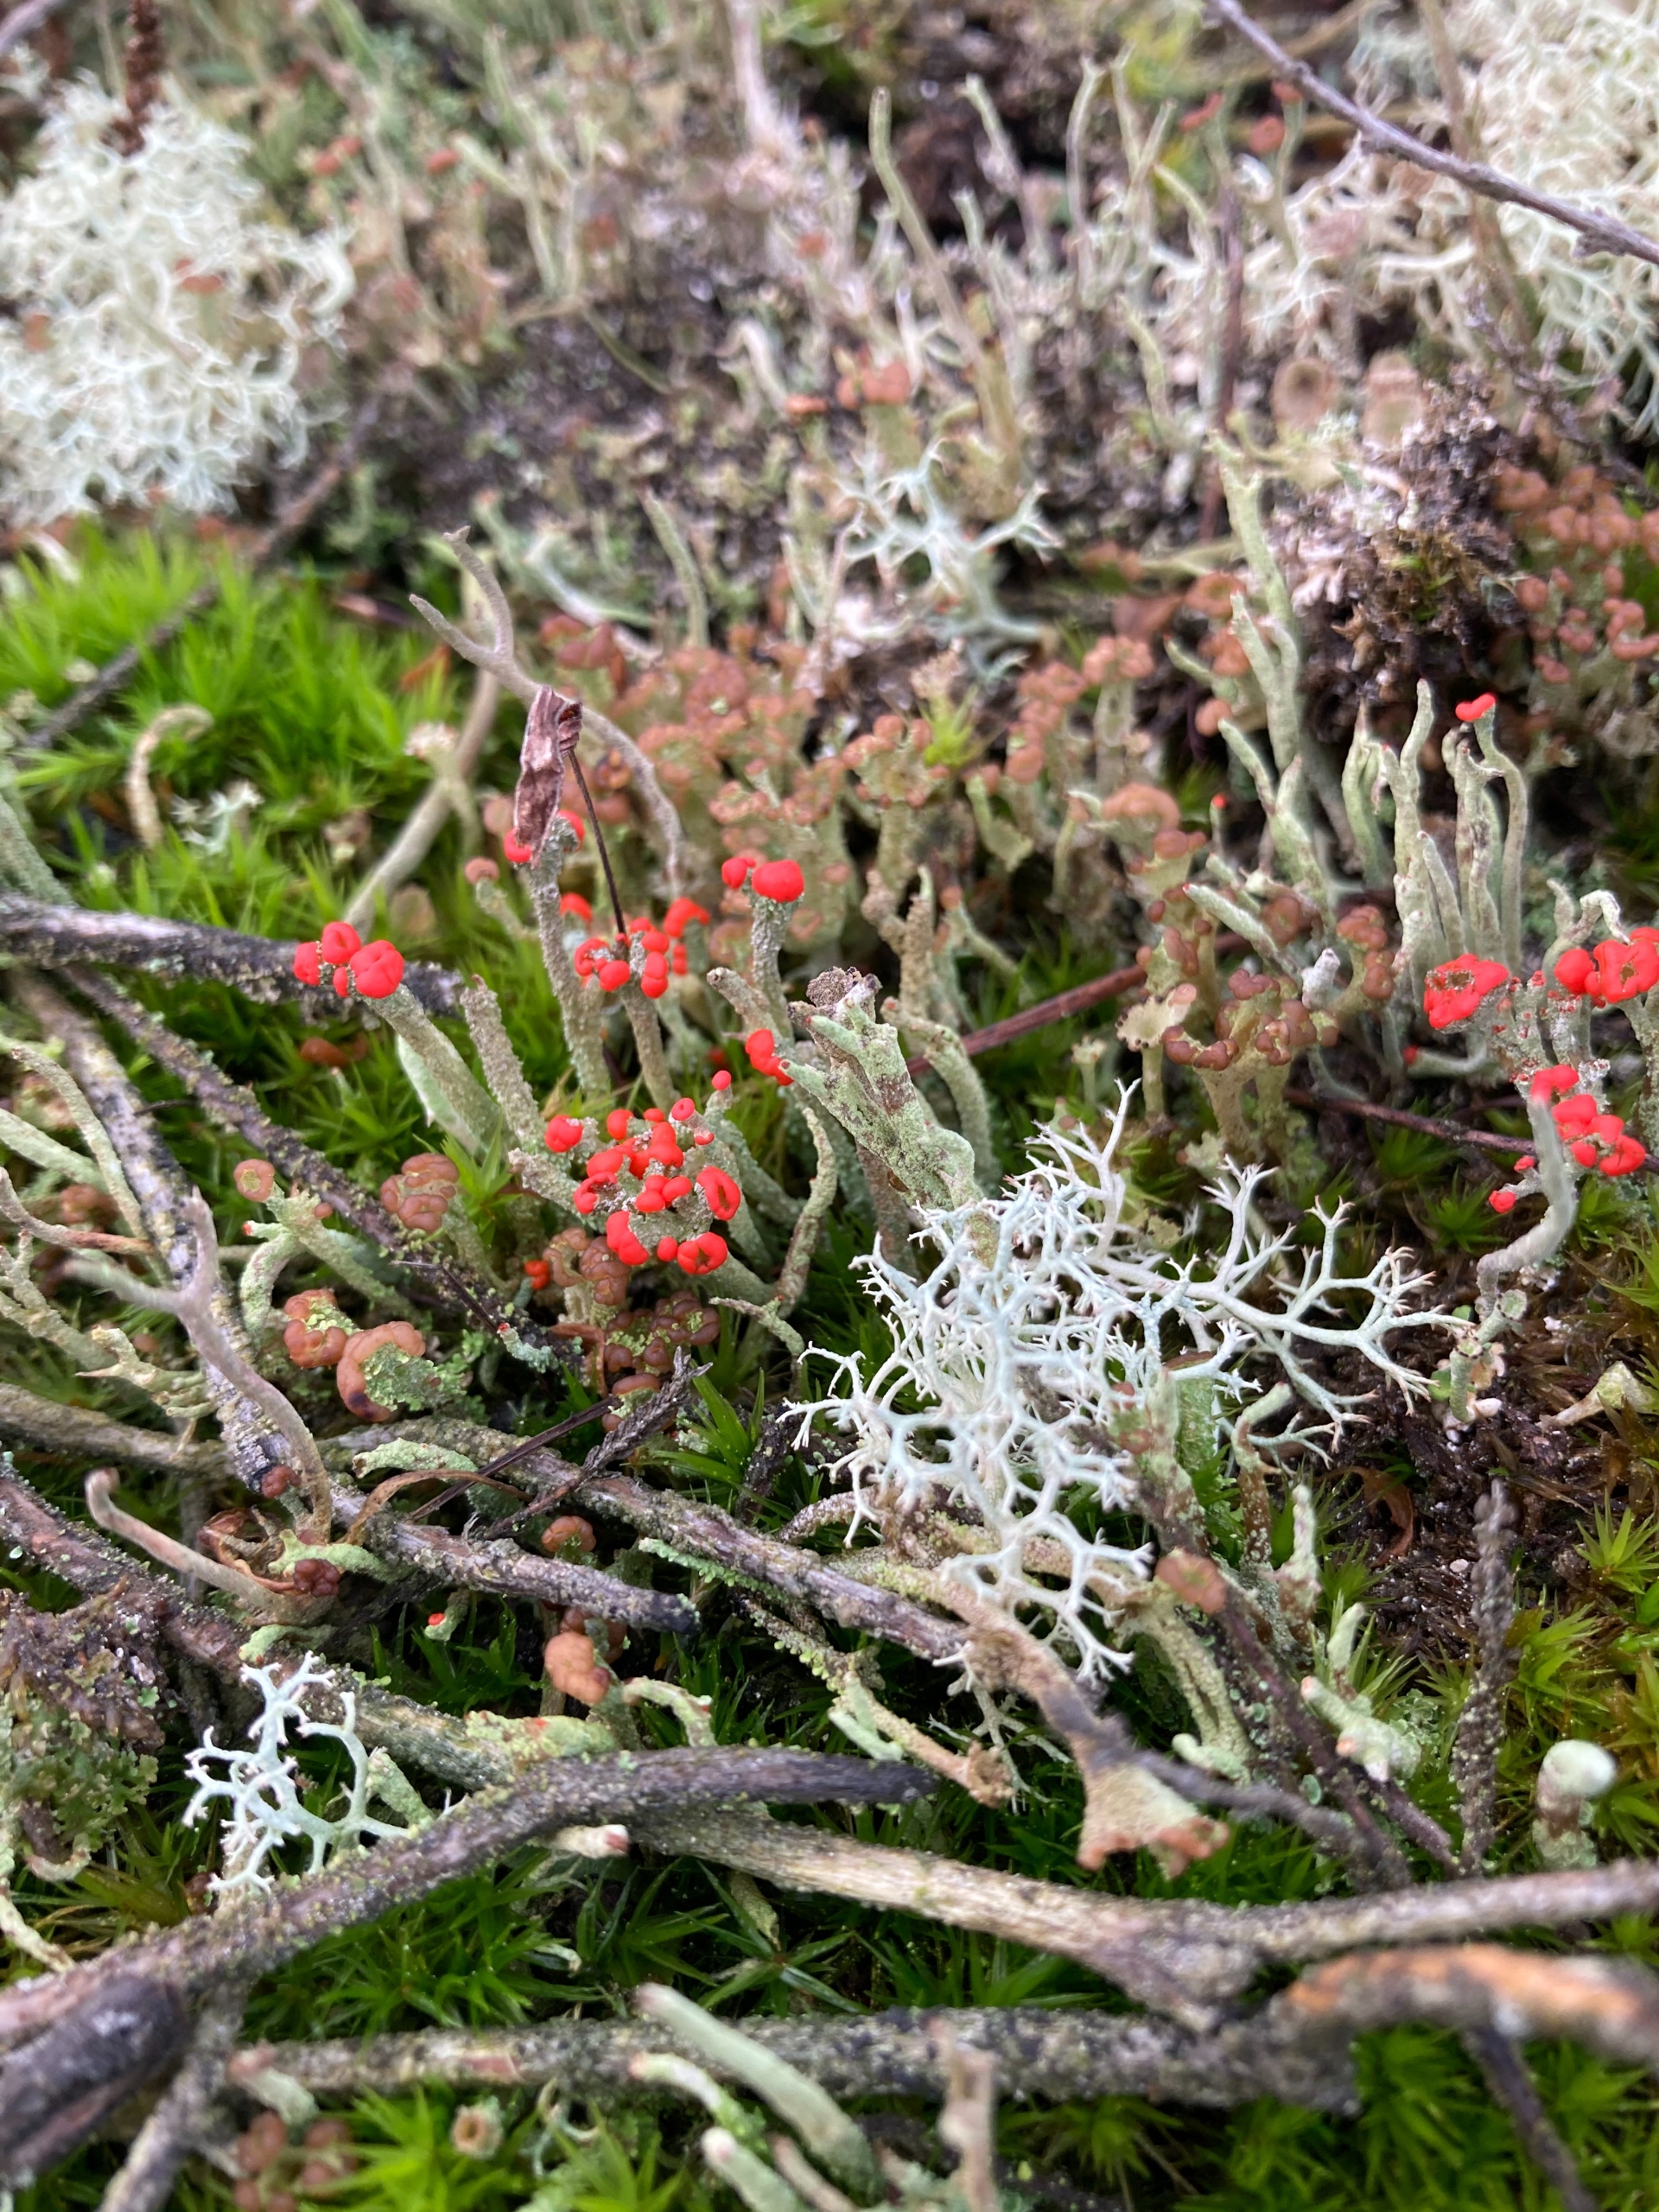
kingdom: Fungi
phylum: Ascomycota
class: Lecanoromycetes
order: Lecanorales
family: Cladoniaceae
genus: Cladonia
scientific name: Cladonia floerkeana
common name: Lakrød bægerlav
